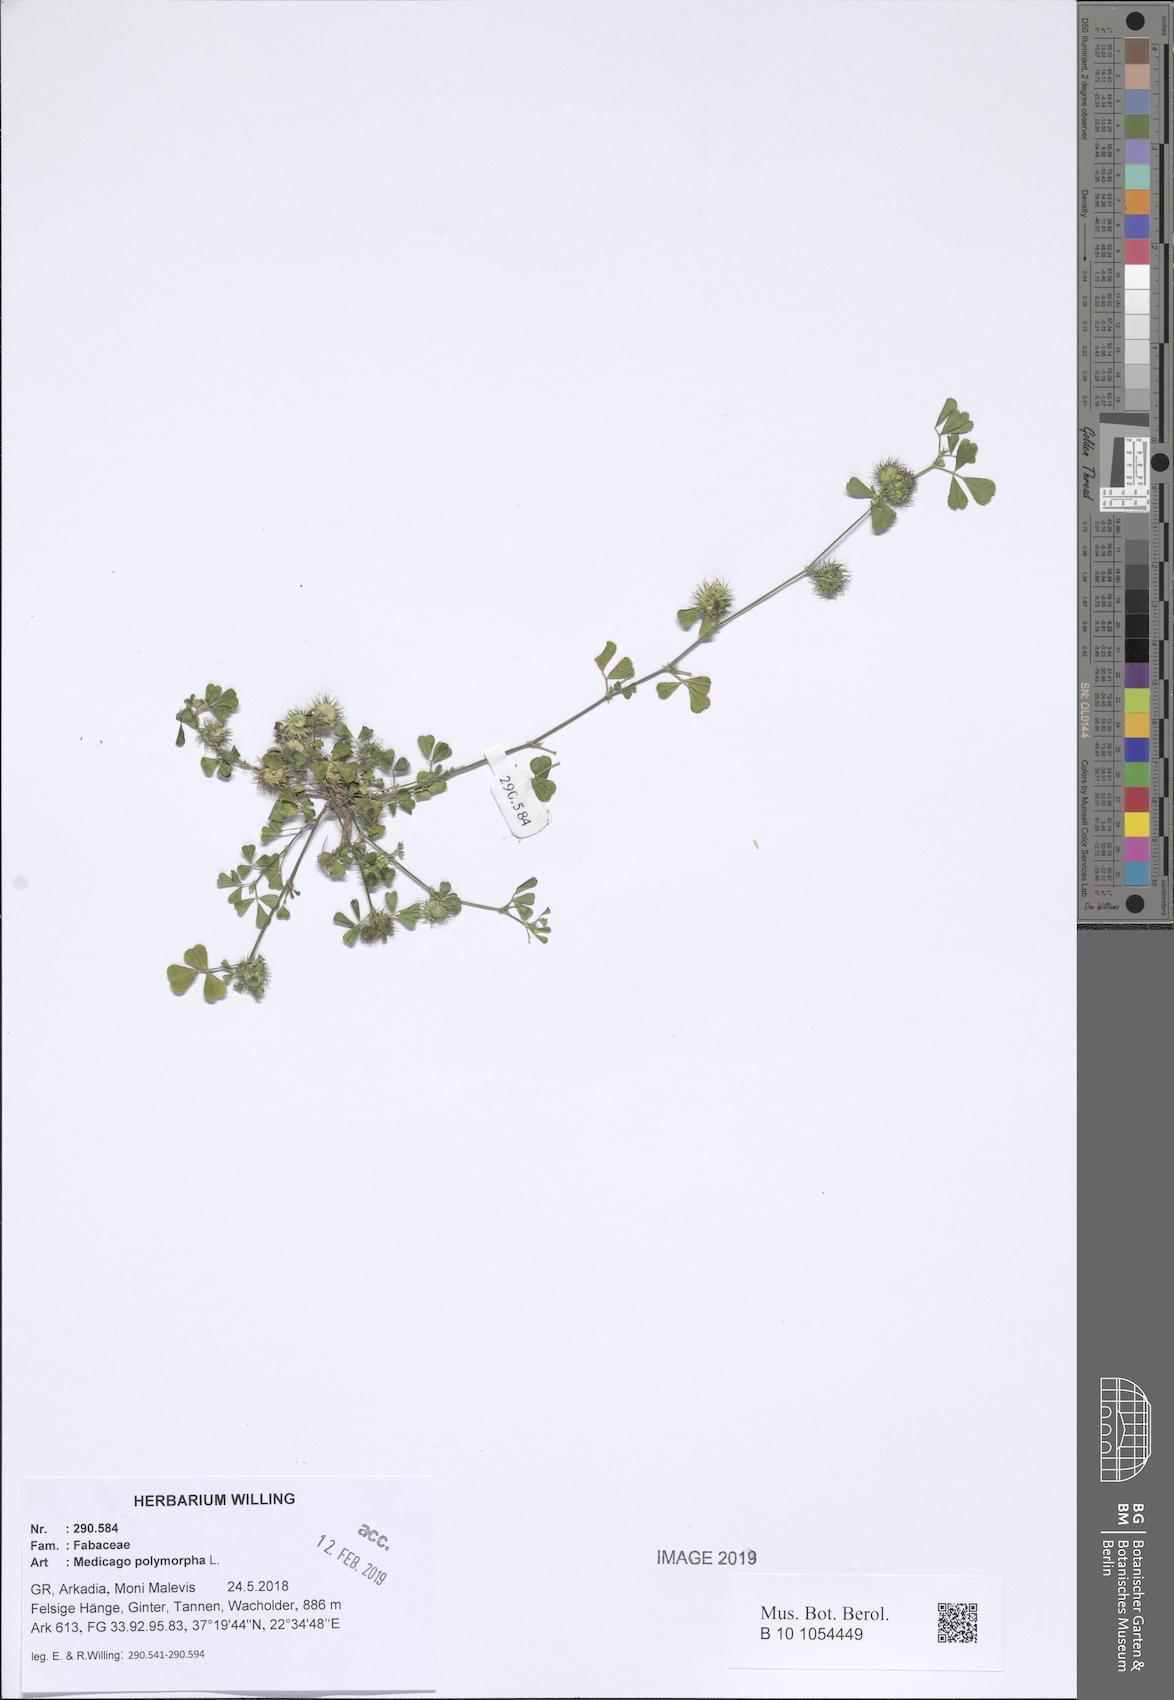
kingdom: Plantae
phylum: Tracheophyta
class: Magnoliopsida
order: Fabales
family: Fabaceae
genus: Medicago
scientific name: Medicago polymorpha
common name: Burclover
